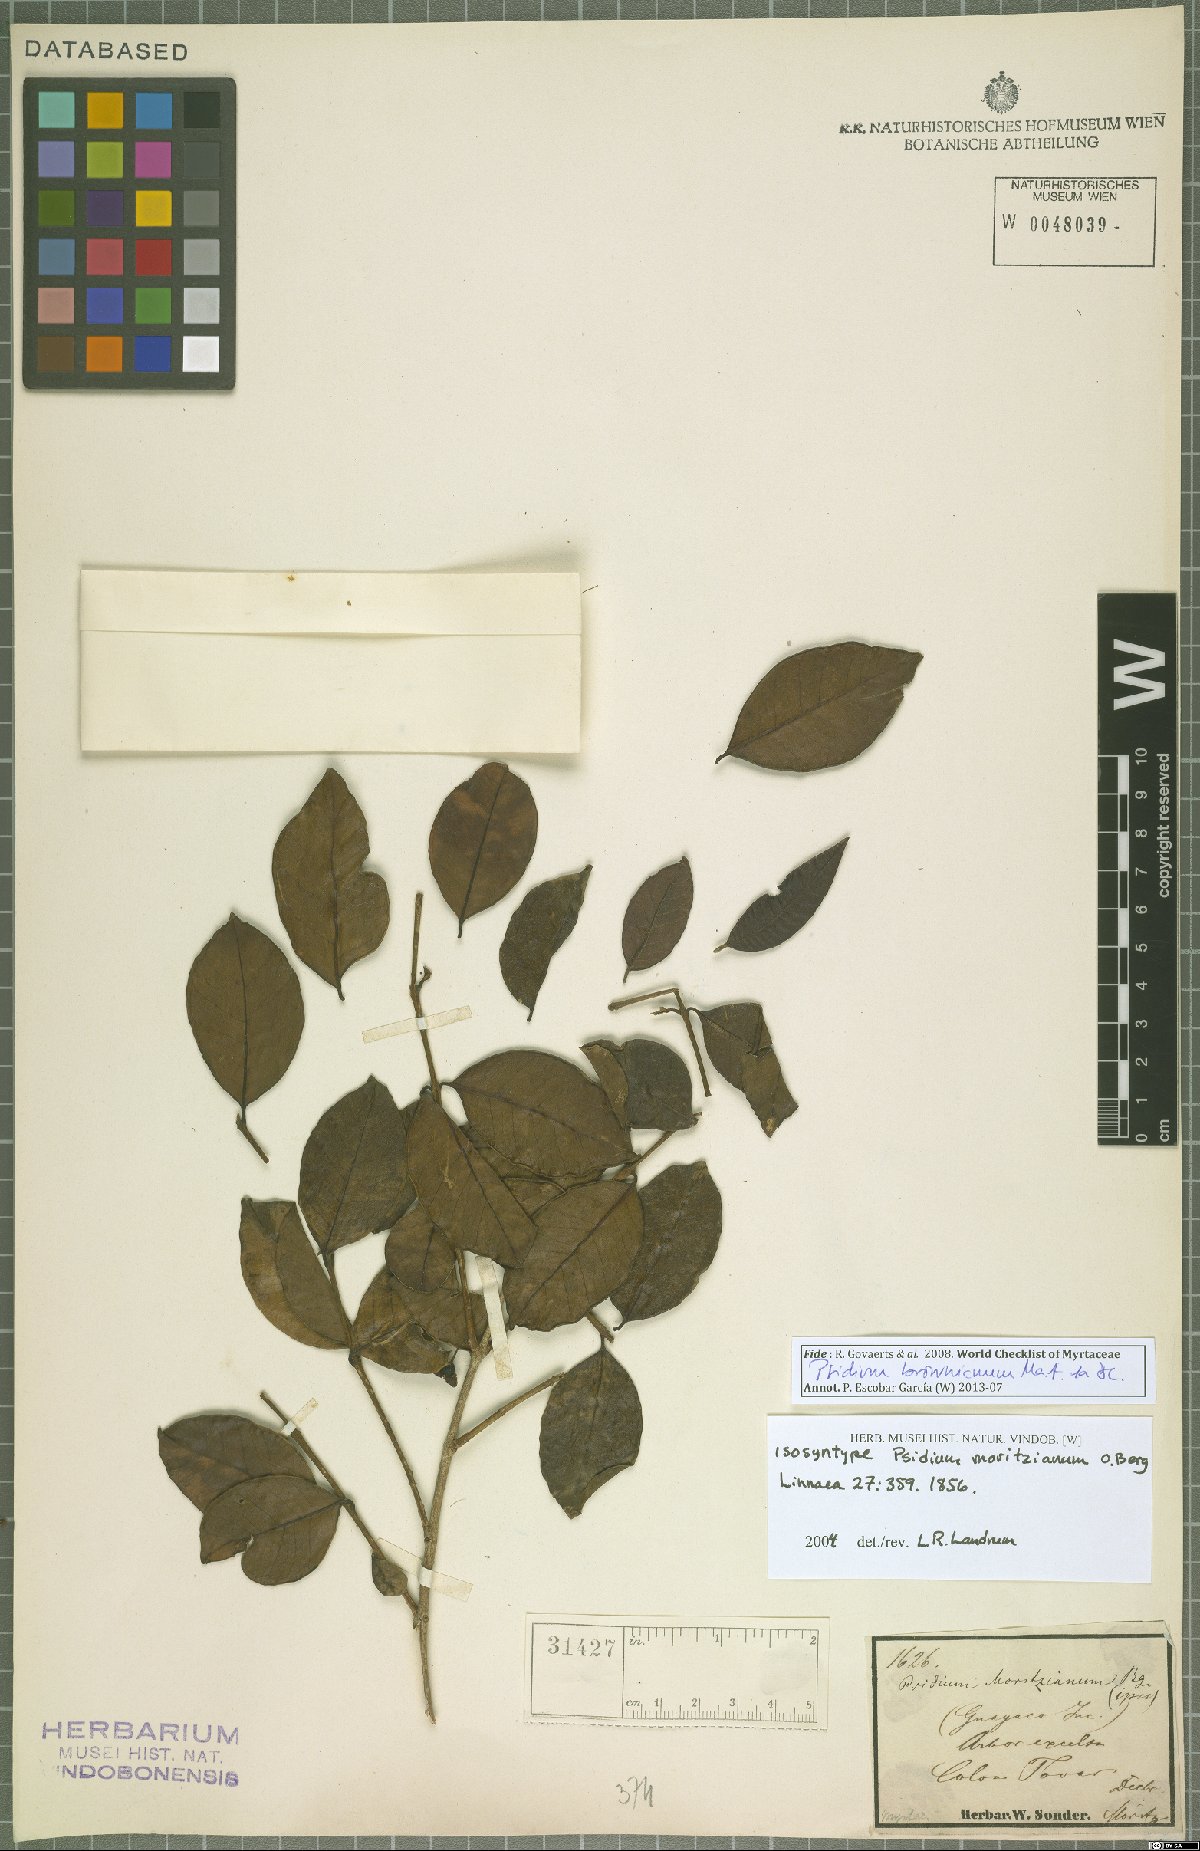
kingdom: Plantae
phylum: Tracheophyta
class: Magnoliopsida
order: Myrtales
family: Myrtaceae
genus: Psidium
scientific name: Psidium brownianum
